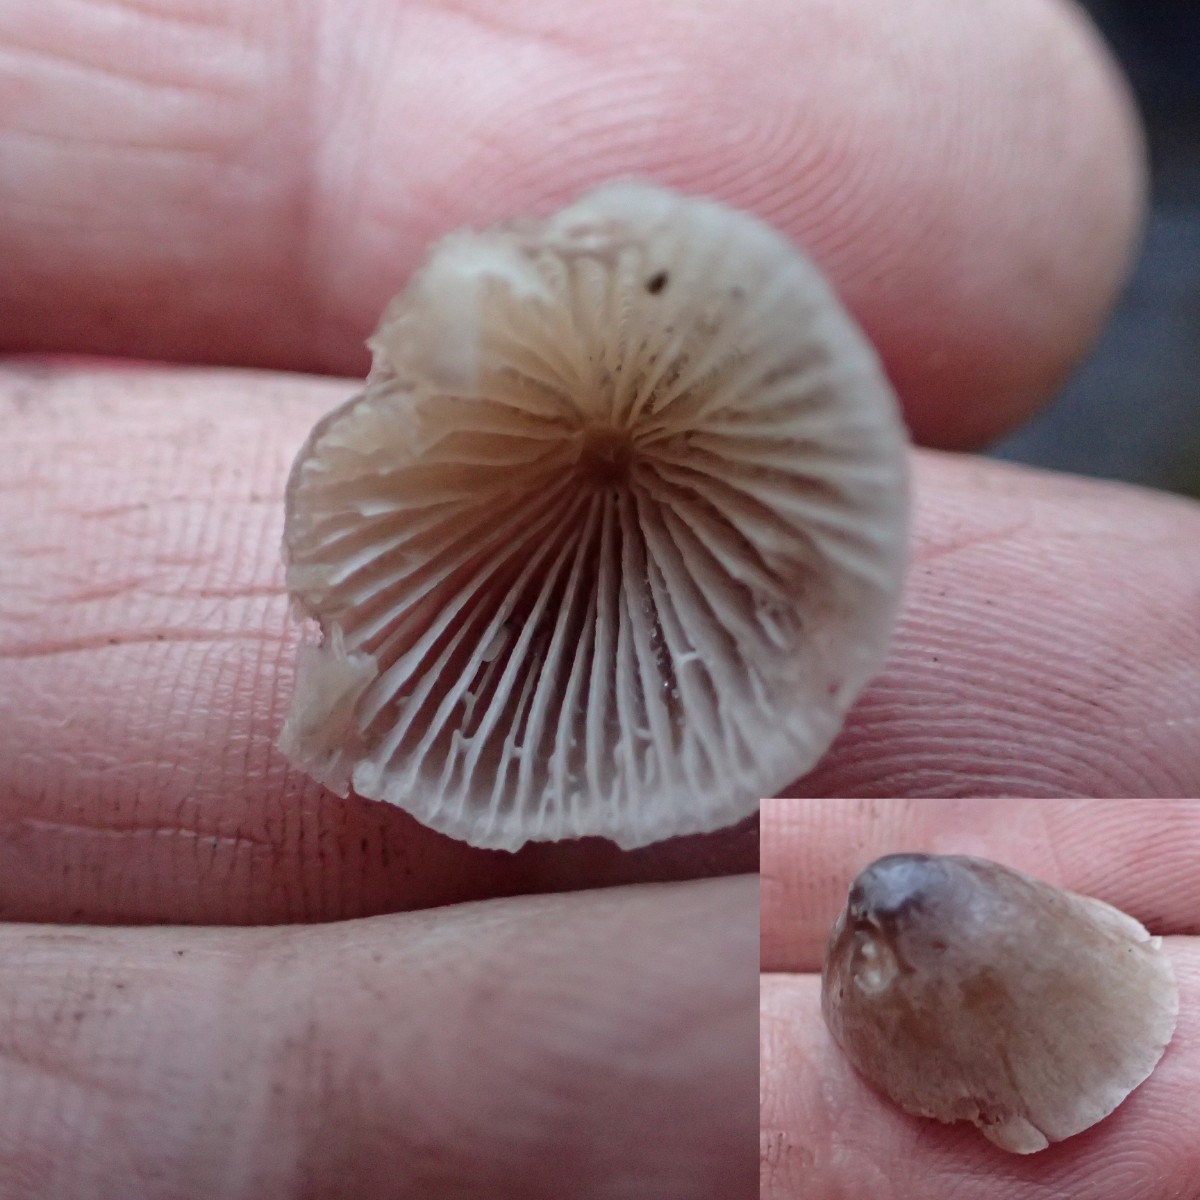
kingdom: Fungi
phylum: Basidiomycota
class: Agaricomycetes
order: Agaricales
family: Mycenaceae
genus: Mycena
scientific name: Mycena
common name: huesvamp
